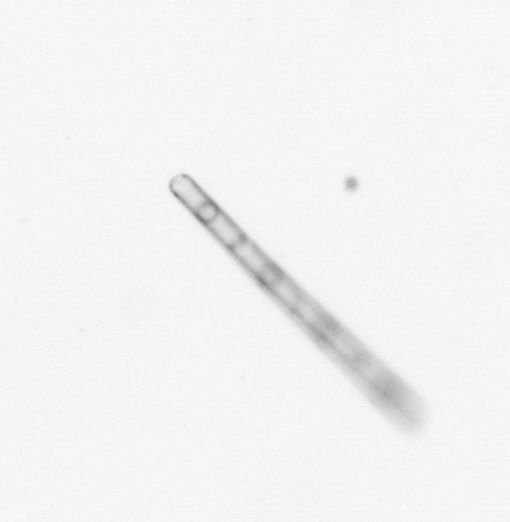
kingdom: Chromista
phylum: Ochrophyta
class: Bacillariophyceae
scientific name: Bacillariophyceae
